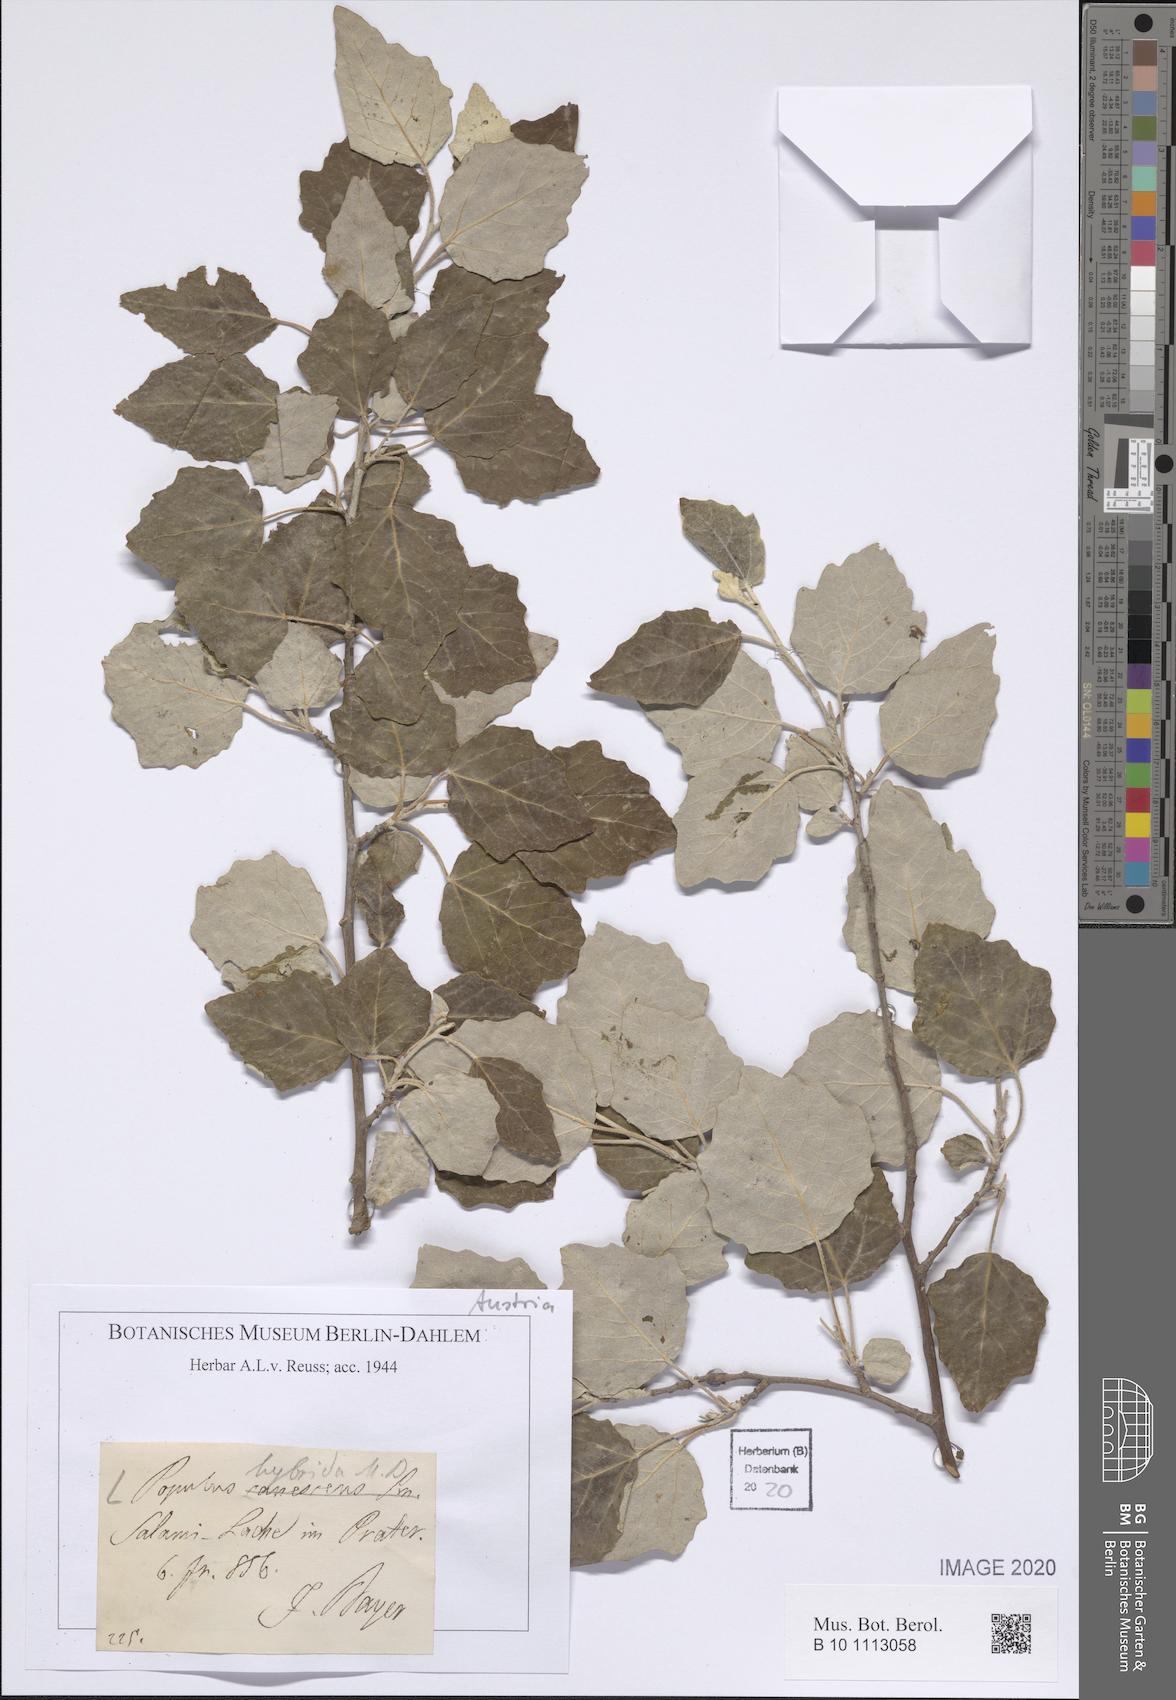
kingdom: Plantae
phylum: Tracheophyta
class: Magnoliopsida
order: Malpighiales
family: Salicaceae
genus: Populus
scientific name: Populus canescens
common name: Gray poplar
